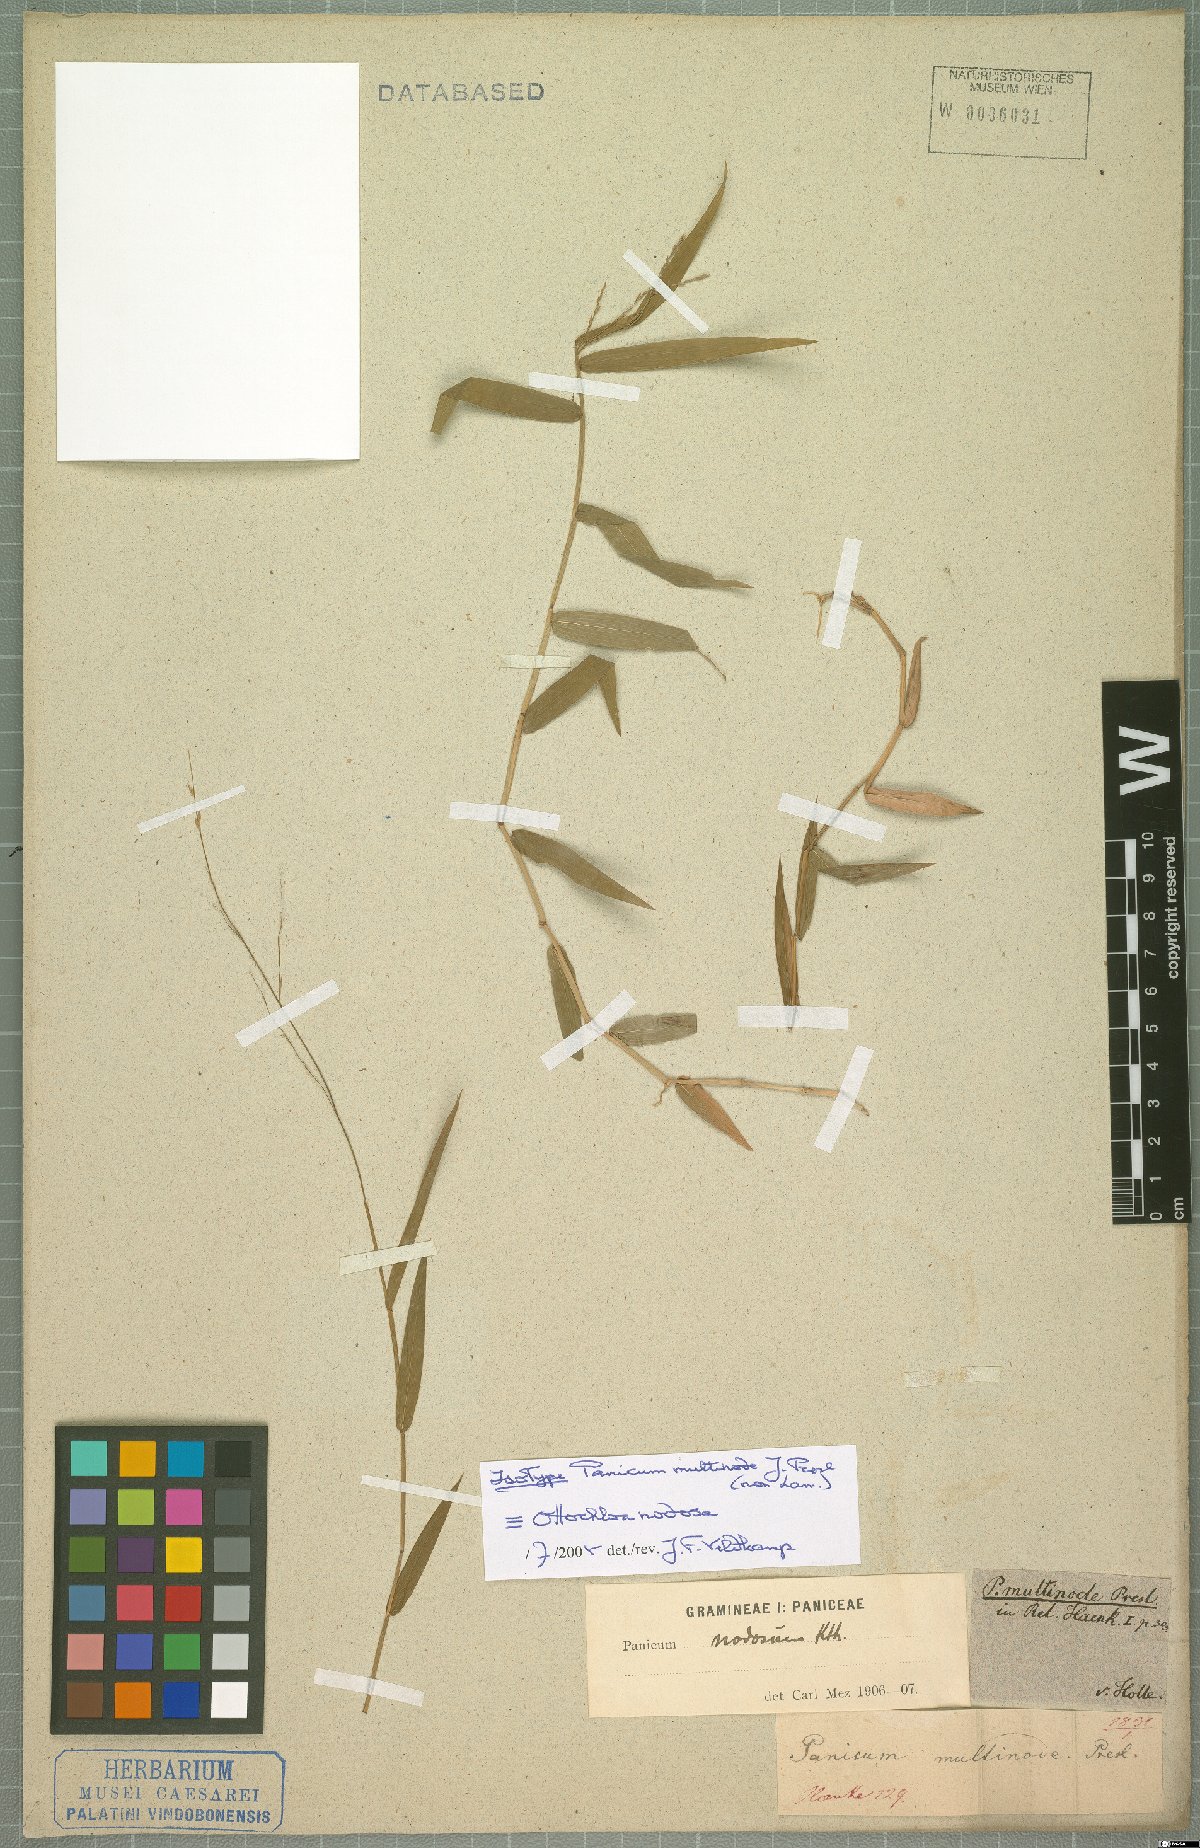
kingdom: Plantae
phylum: Tracheophyta
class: Liliopsida
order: Poales
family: Poaceae
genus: Ottochloa
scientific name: Ottochloa nodosa
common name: Slender-panic grass
